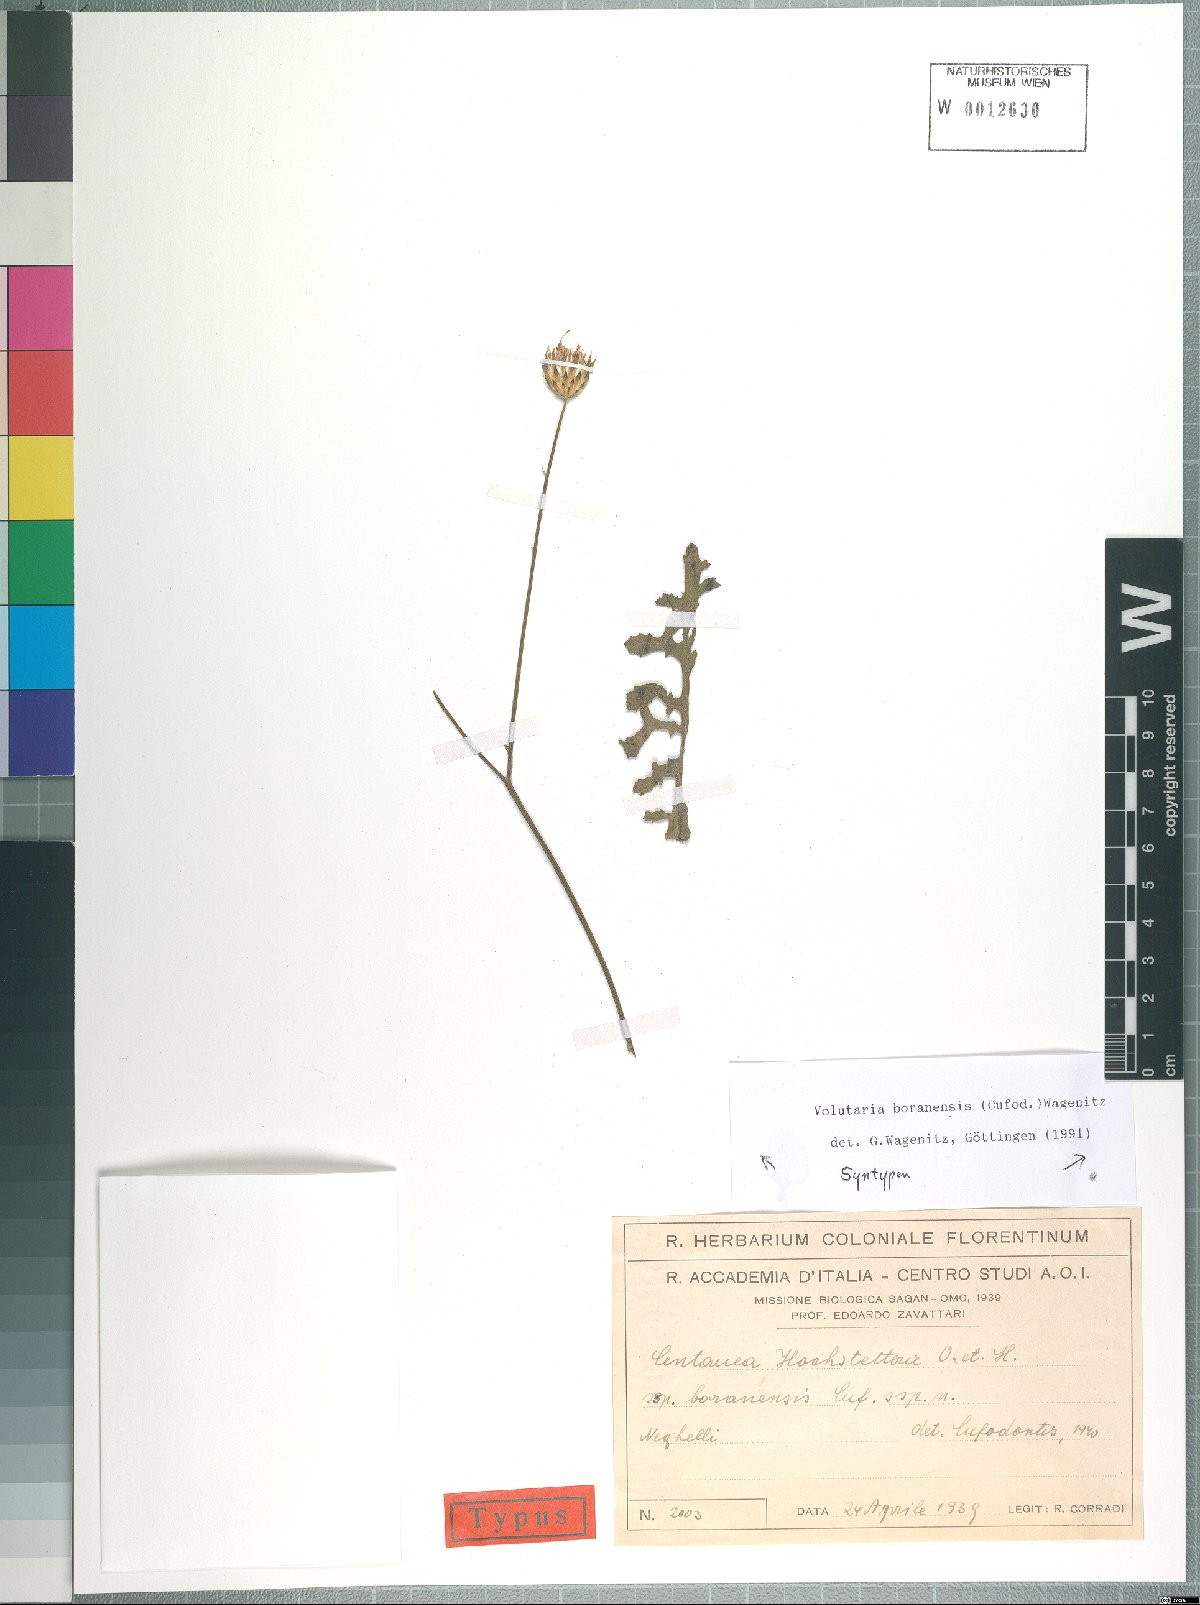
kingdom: Plantae
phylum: Tracheophyta
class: Magnoliopsida
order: Asterales
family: Asteraceae
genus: Volutaria
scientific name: Volutaria boranensis
